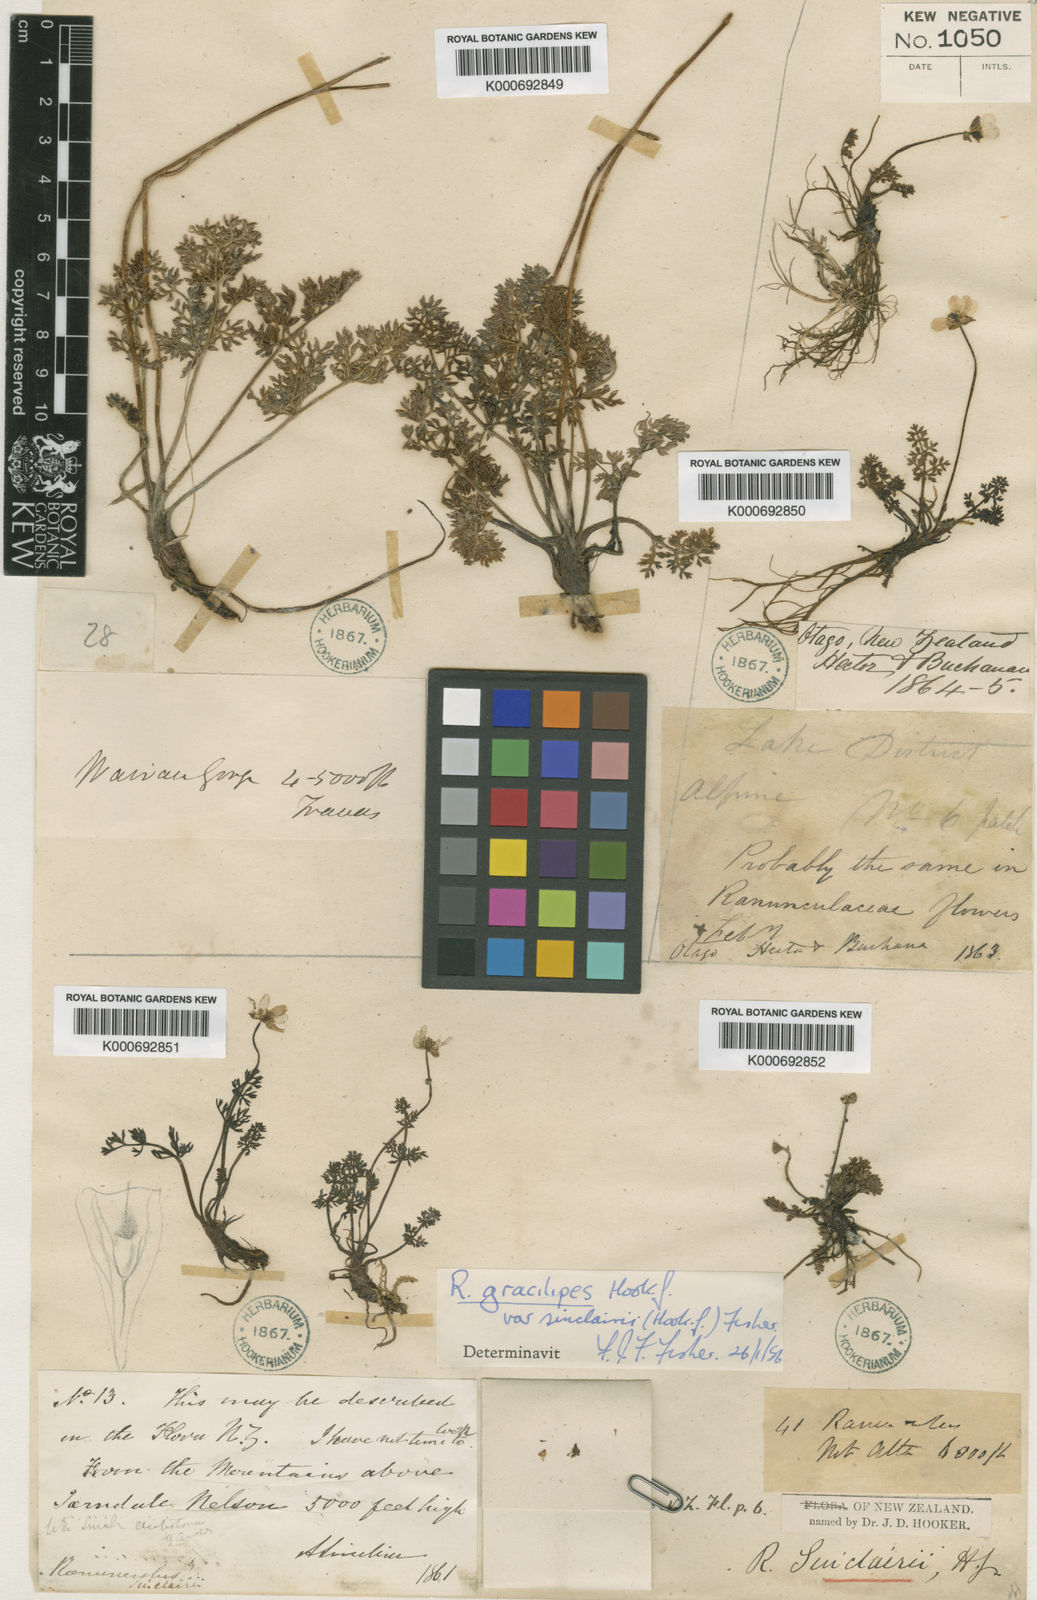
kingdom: Plantae
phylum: Tracheophyta
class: Magnoliopsida
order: Ranunculales
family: Ranunculaceae
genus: Ranunculus
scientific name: Ranunculus gracilipes
